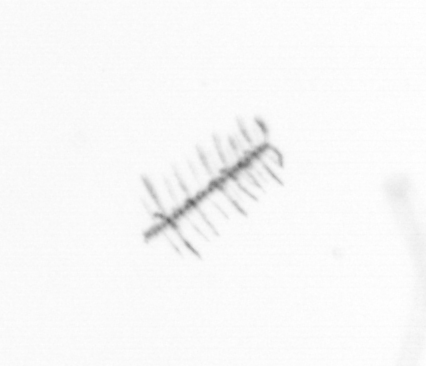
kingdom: Chromista
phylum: Ochrophyta
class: Bacillariophyceae
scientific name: Bacillariophyceae
